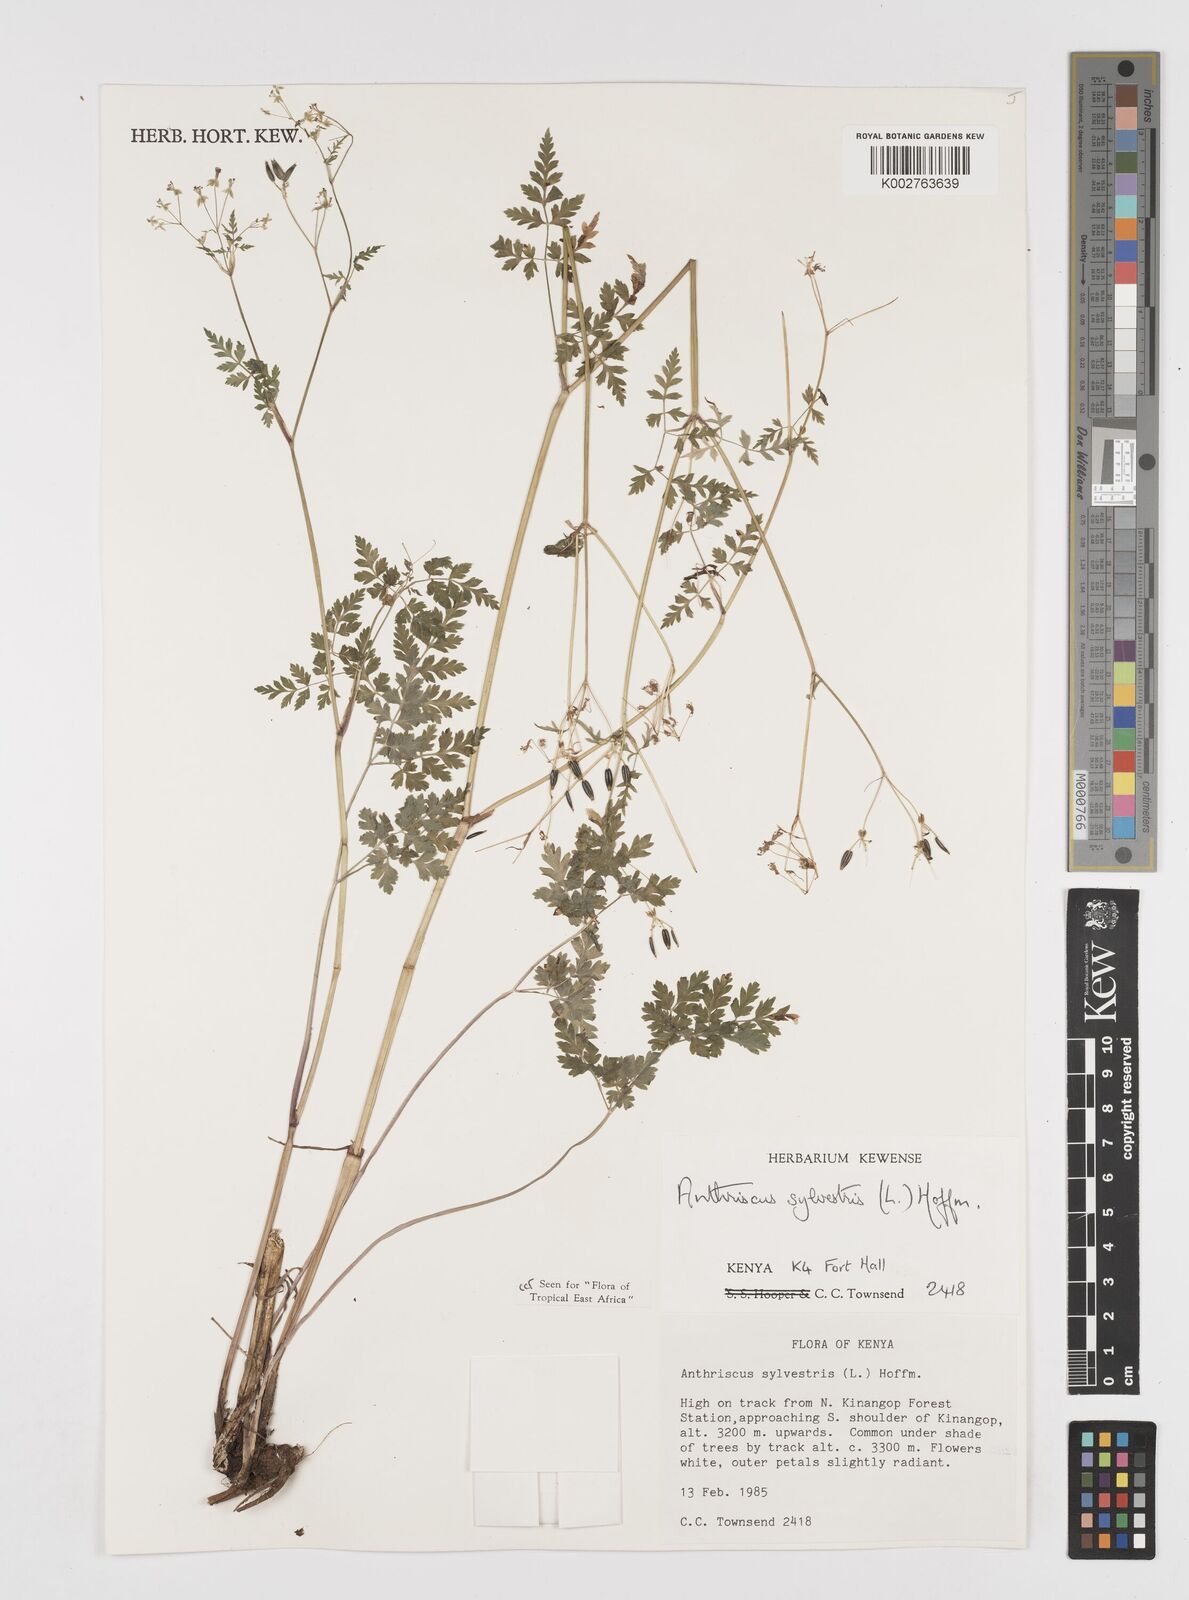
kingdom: Plantae
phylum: Tracheophyta
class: Magnoliopsida
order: Apiales
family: Apiaceae
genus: Anthriscus
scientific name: Anthriscus sylvestris
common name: Cow parsley
